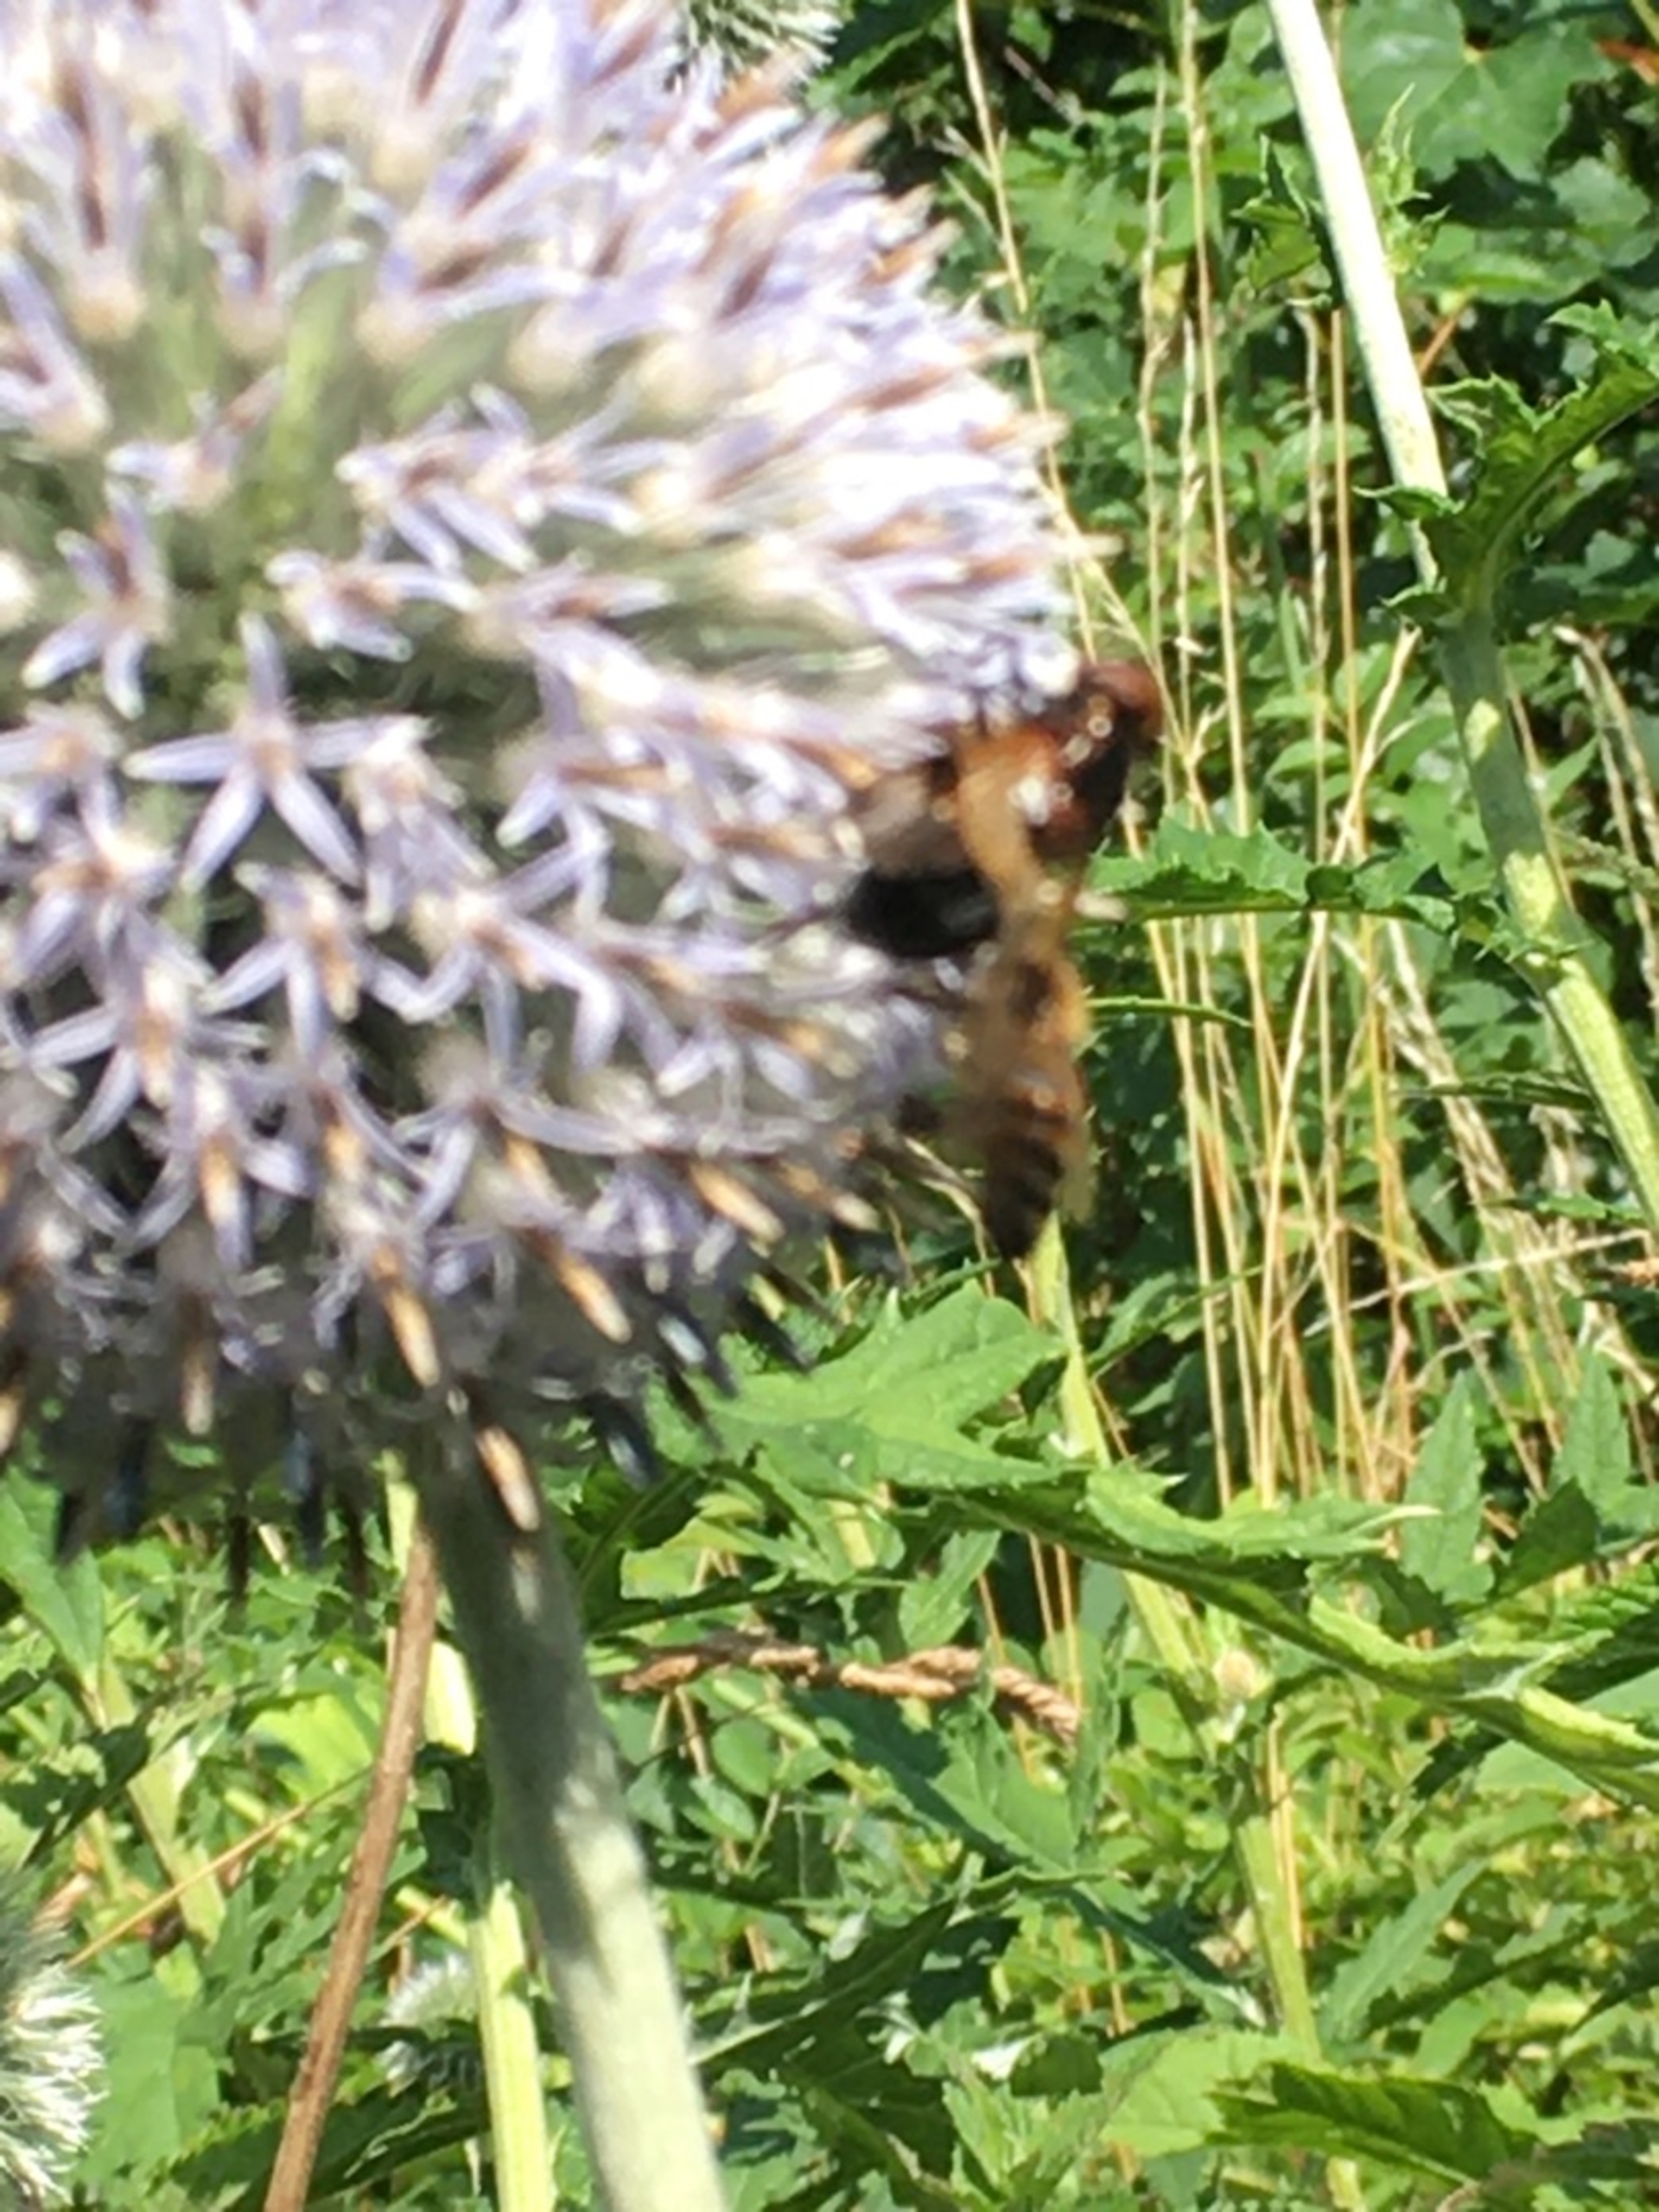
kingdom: Animalia
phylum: Arthropoda
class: Insecta
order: Diptera
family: Syrphidae
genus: Volucella
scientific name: Volucella pellucens
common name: Hvidbåndet humlesvirreflue
